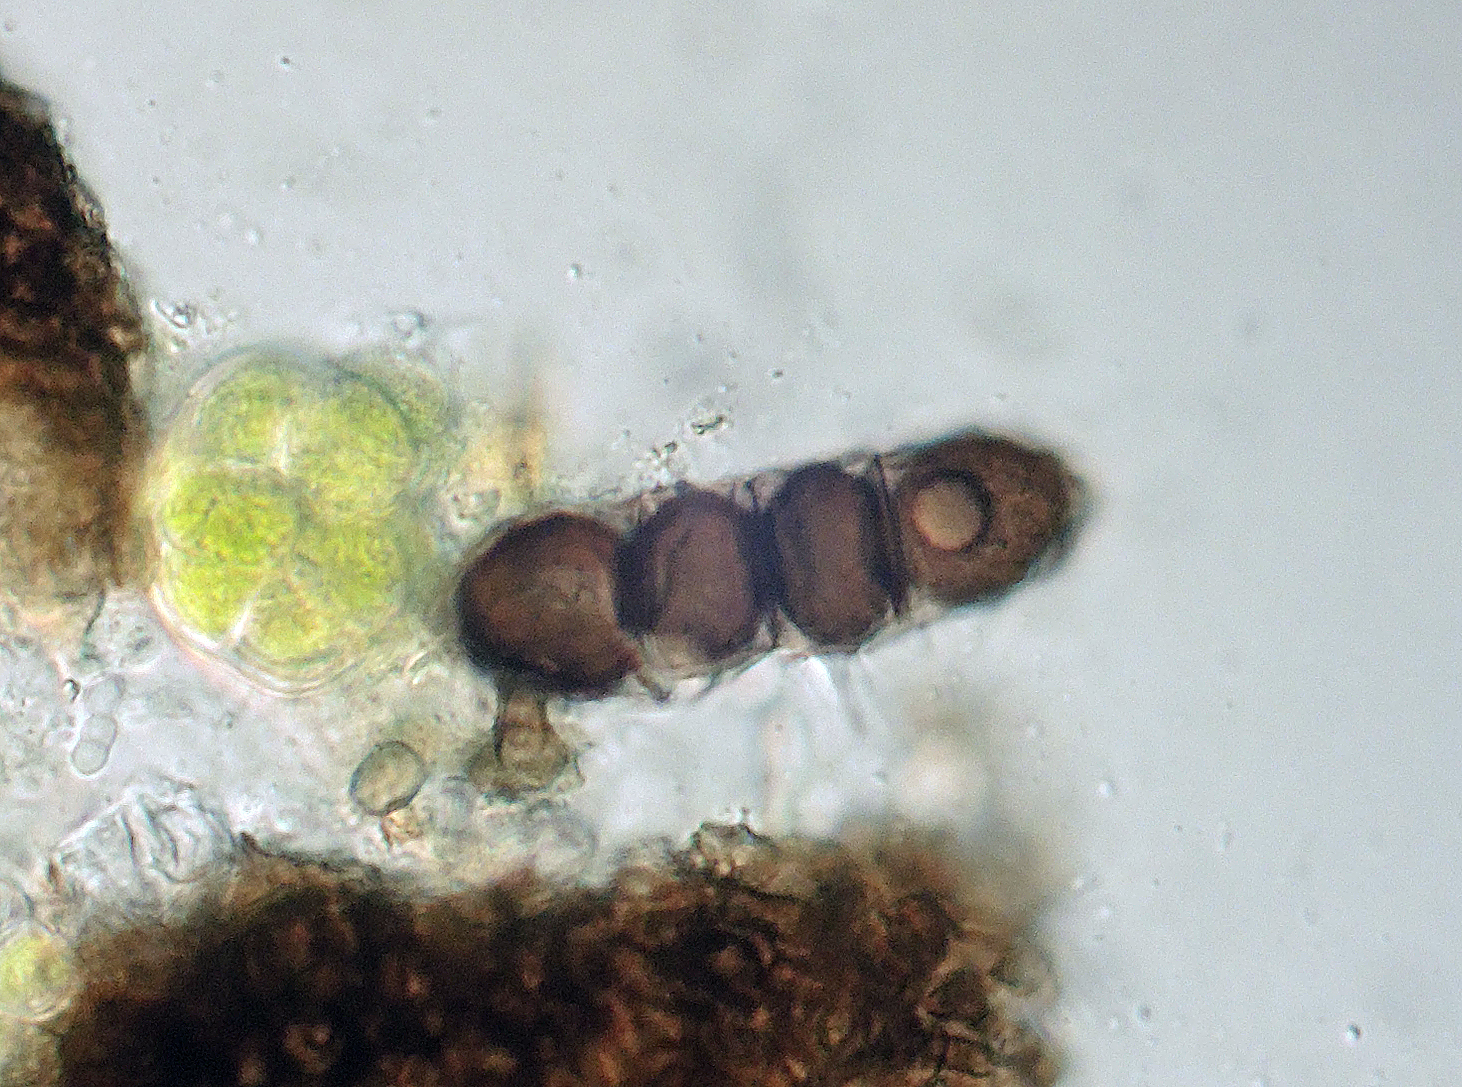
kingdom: Fungi
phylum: Ascomycota
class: Dothideomycetes
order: Pleosporales
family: Massariaceae
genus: Massaria
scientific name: Massaria anomia
